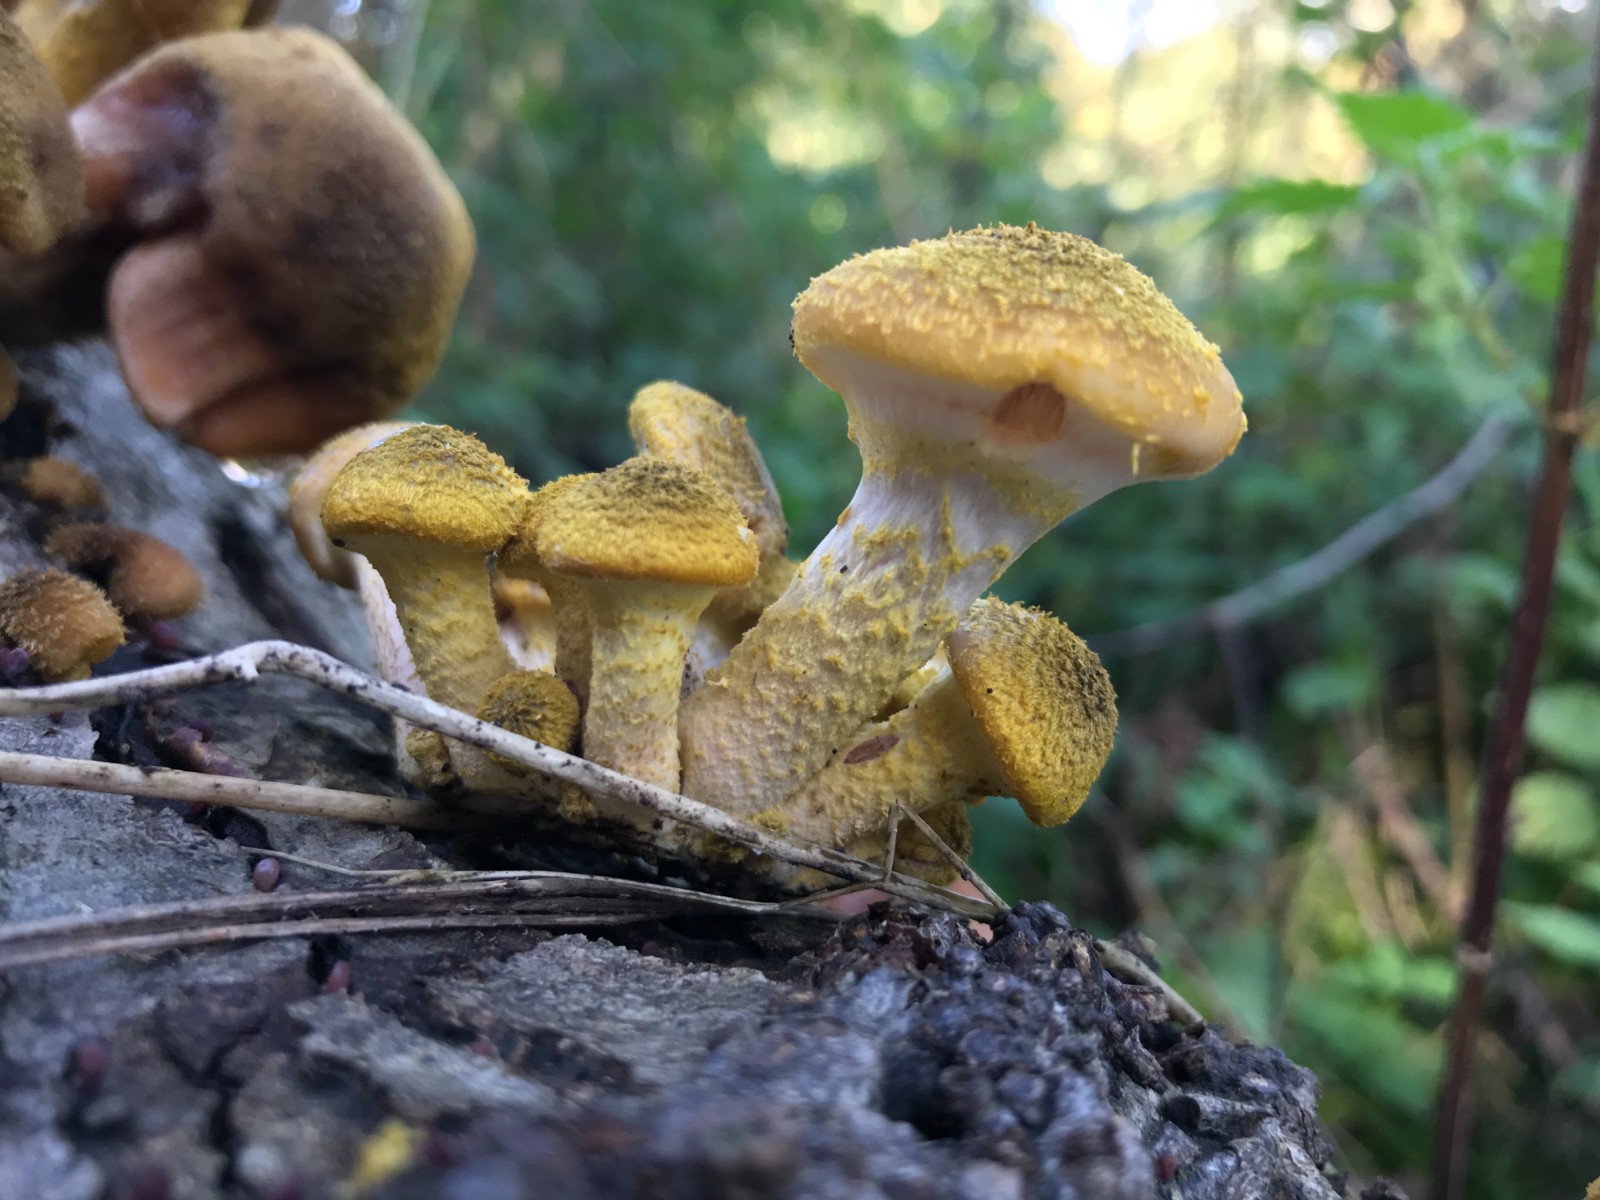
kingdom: Fungi
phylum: Basidiomycota
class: Agaricomycetes
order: Agaricales
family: Physalacriaceae
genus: Armillaria
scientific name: Armillaria lutea
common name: køllestokket honningsvamp
